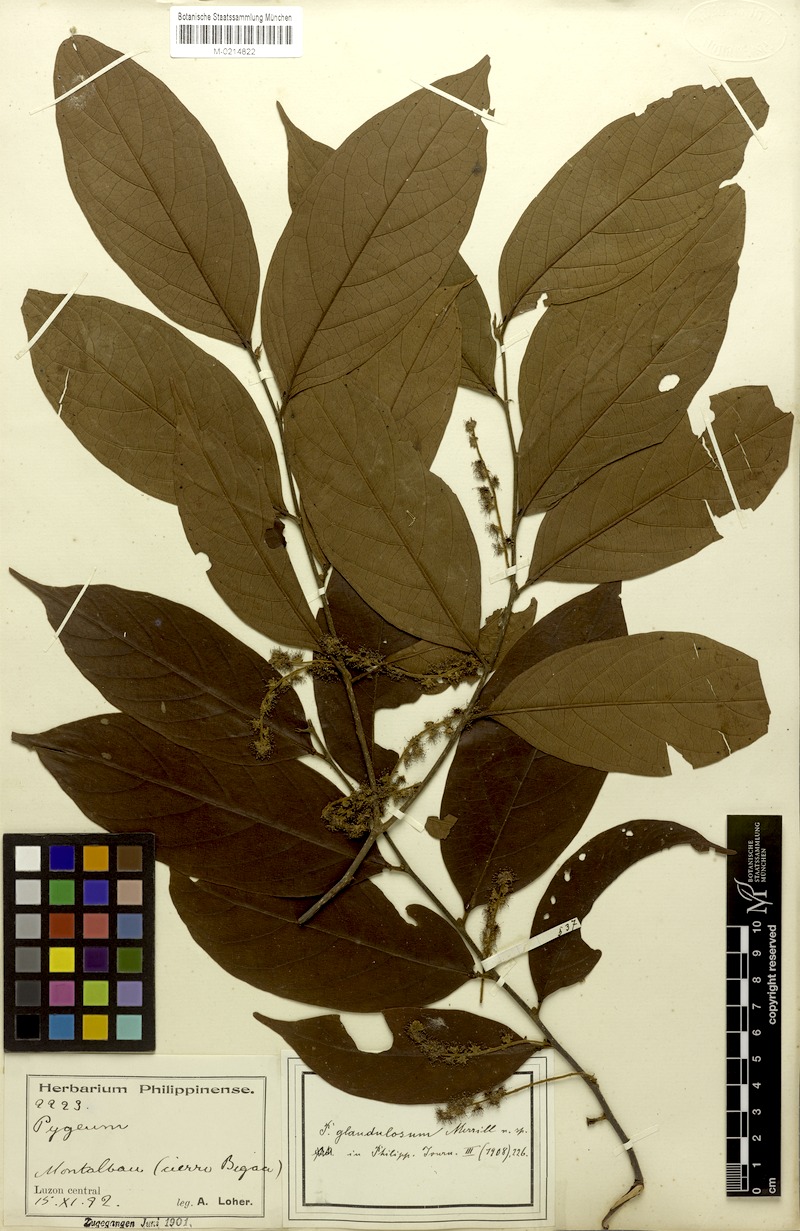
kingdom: Plantae
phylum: Tracheophyta
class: Magnoliopsida
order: Rosales
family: Rosaceae
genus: Prunus
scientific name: Prunus marsupialis
